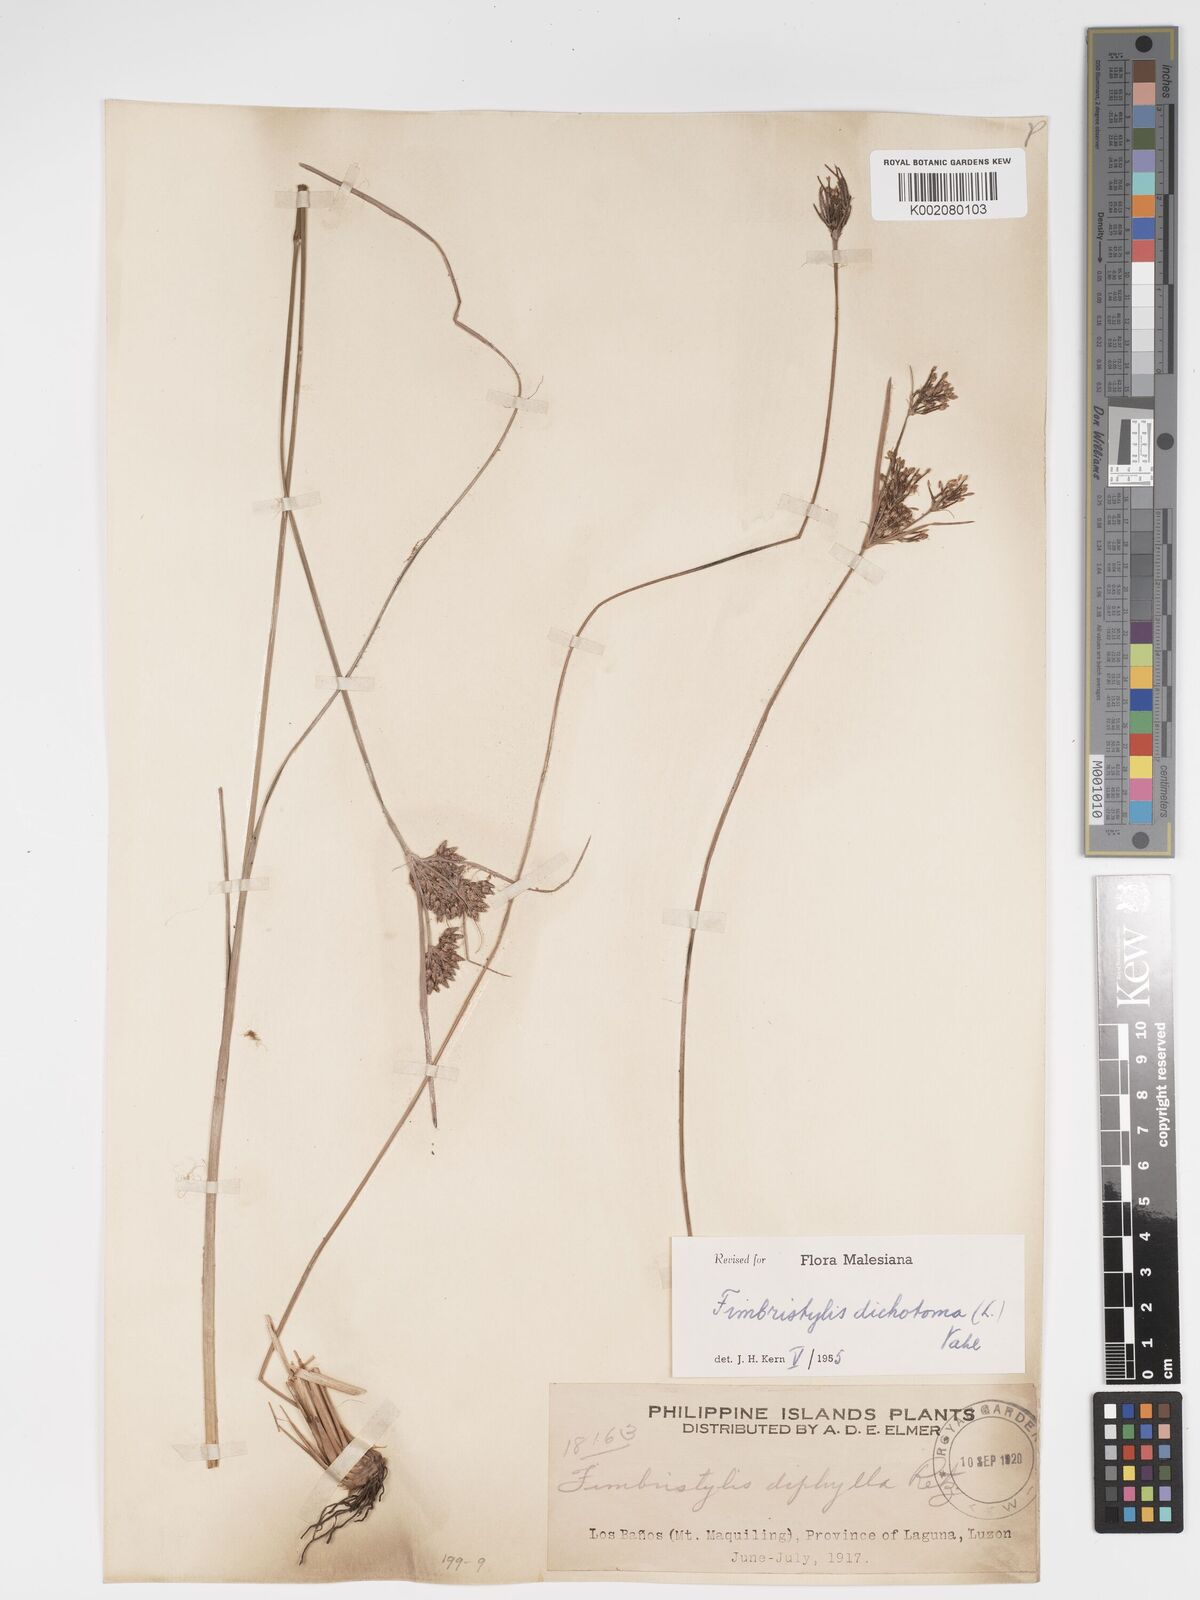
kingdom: Plantae
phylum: Tracheophyta
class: Liliopsida
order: Poales
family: Cyperaceae
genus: Fimbristylis
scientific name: Fimbristylis dichotoma
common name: Forked fimbry
